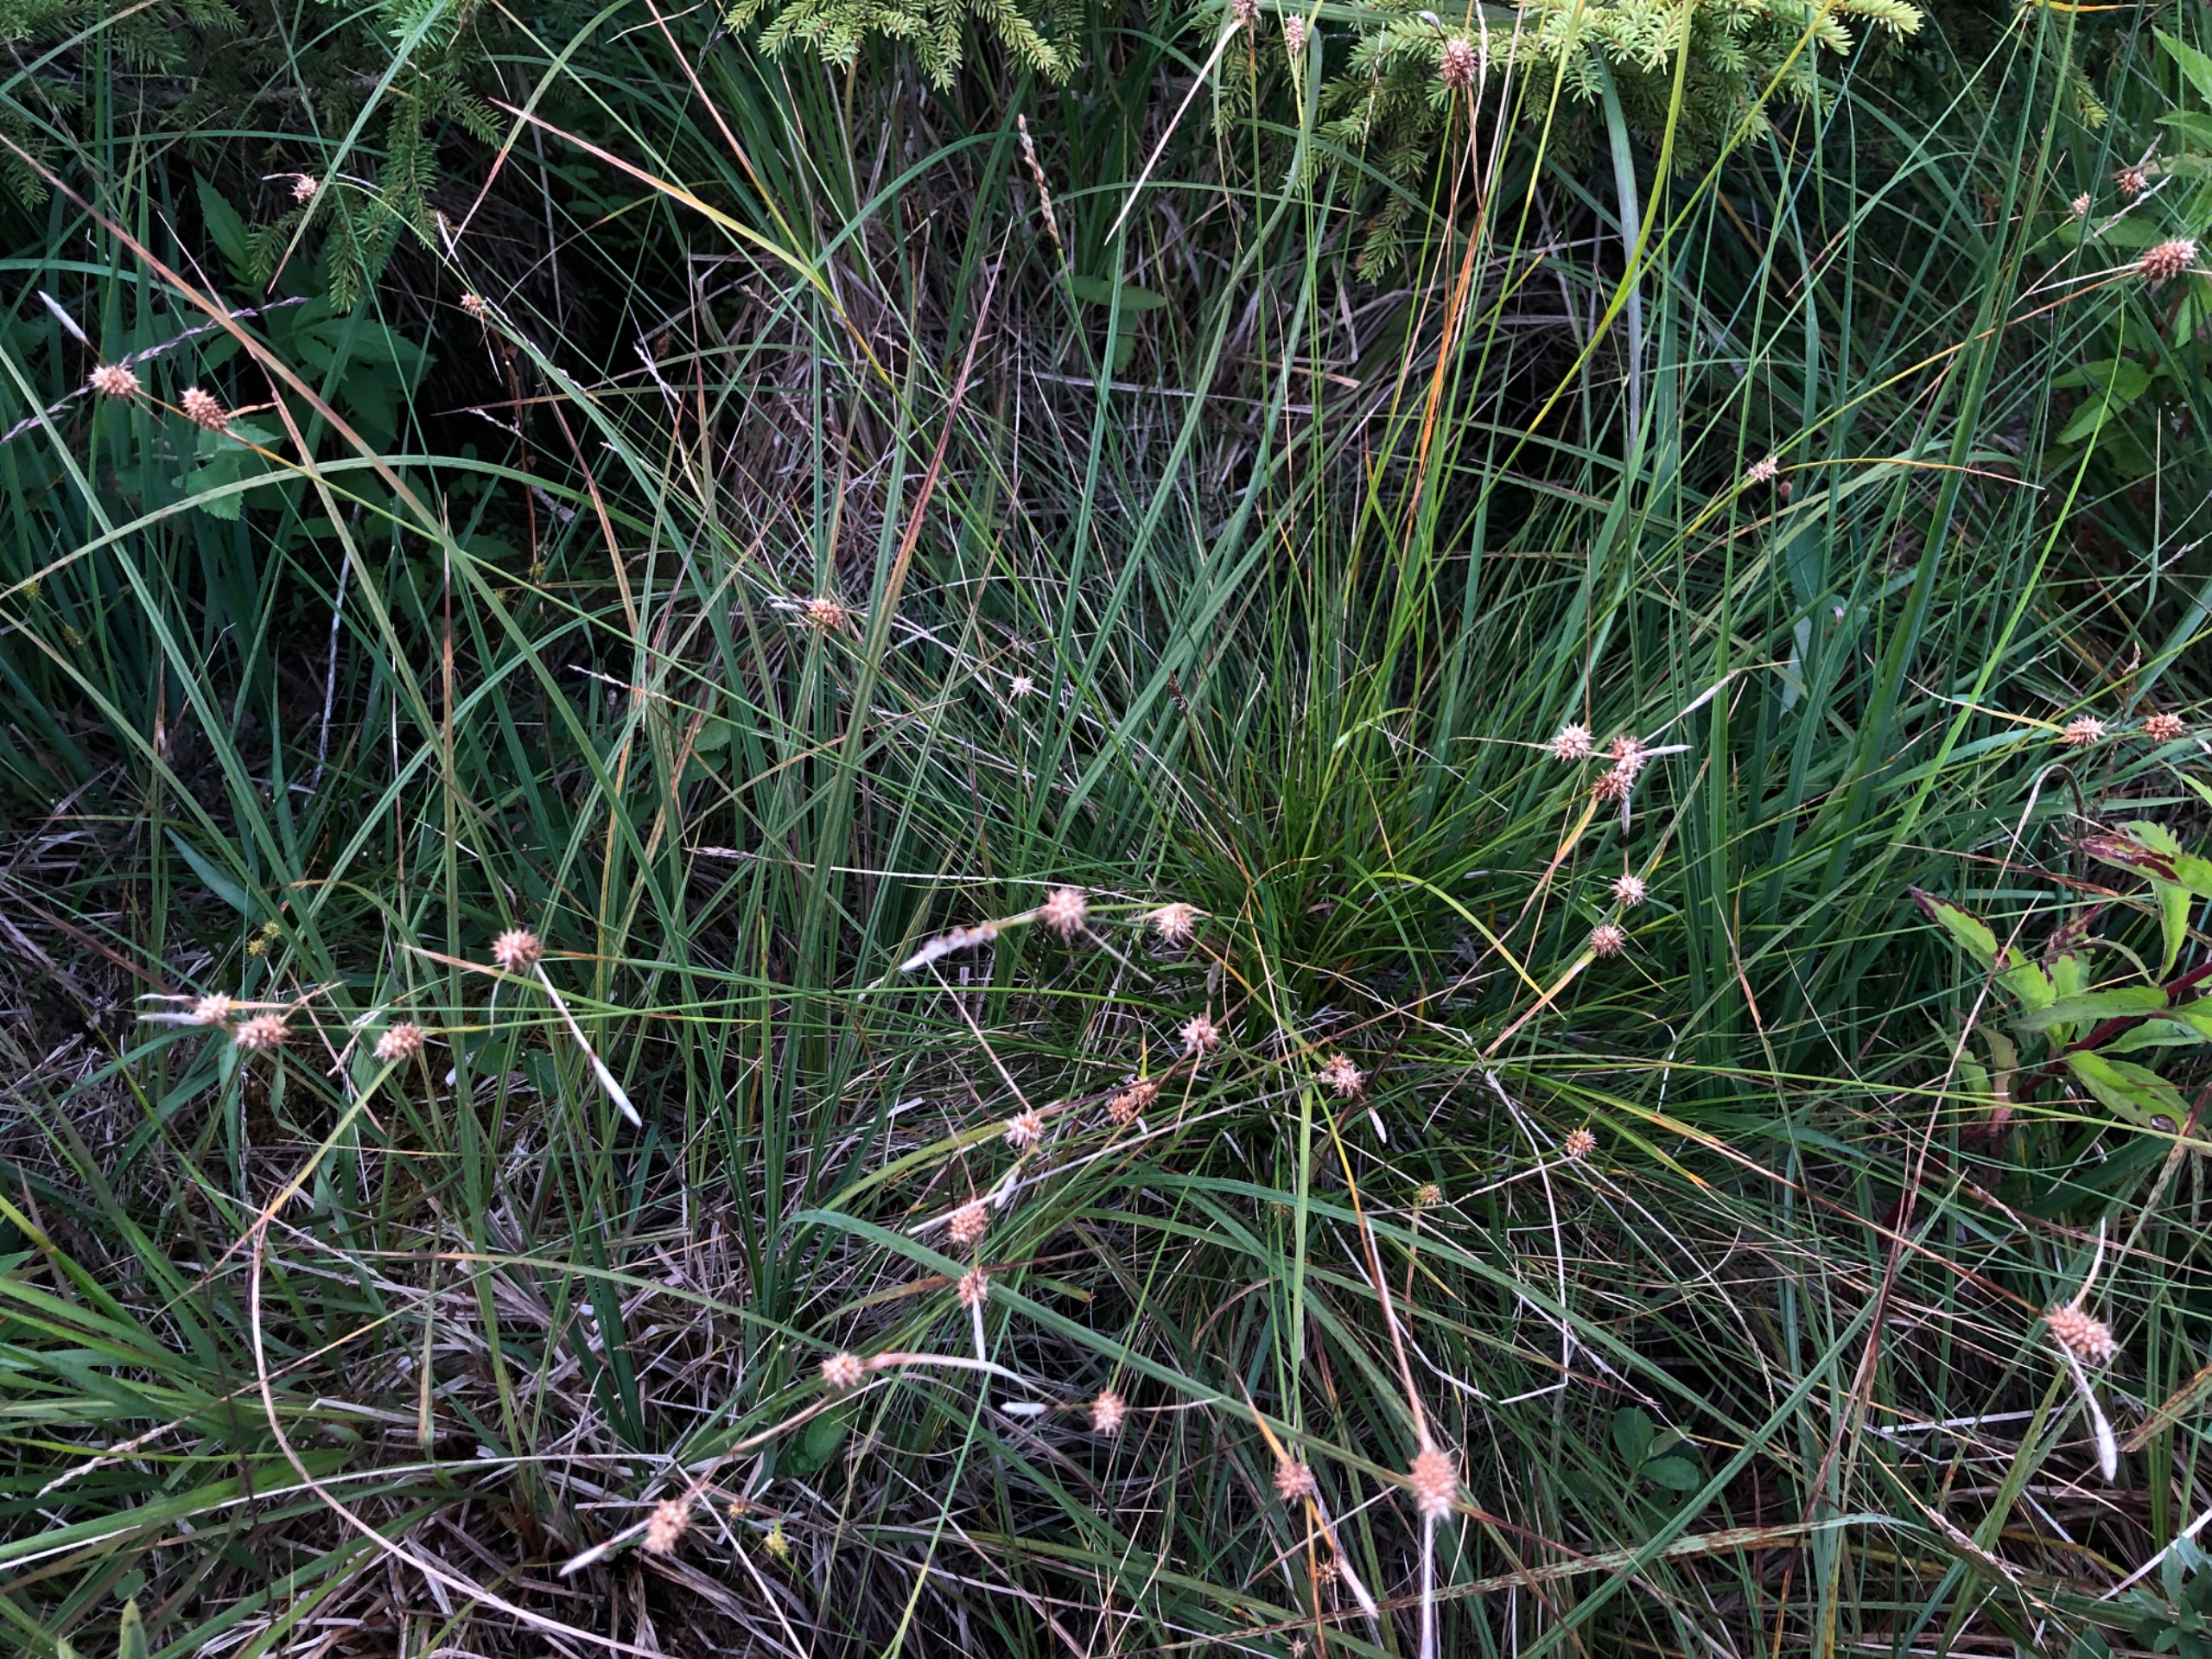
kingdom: Plantae
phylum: Tracheophyta
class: Liliopsida
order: Poales
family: Cyperaceae
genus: Carex
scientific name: Carex lepidocarpa
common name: Krognæb-star
